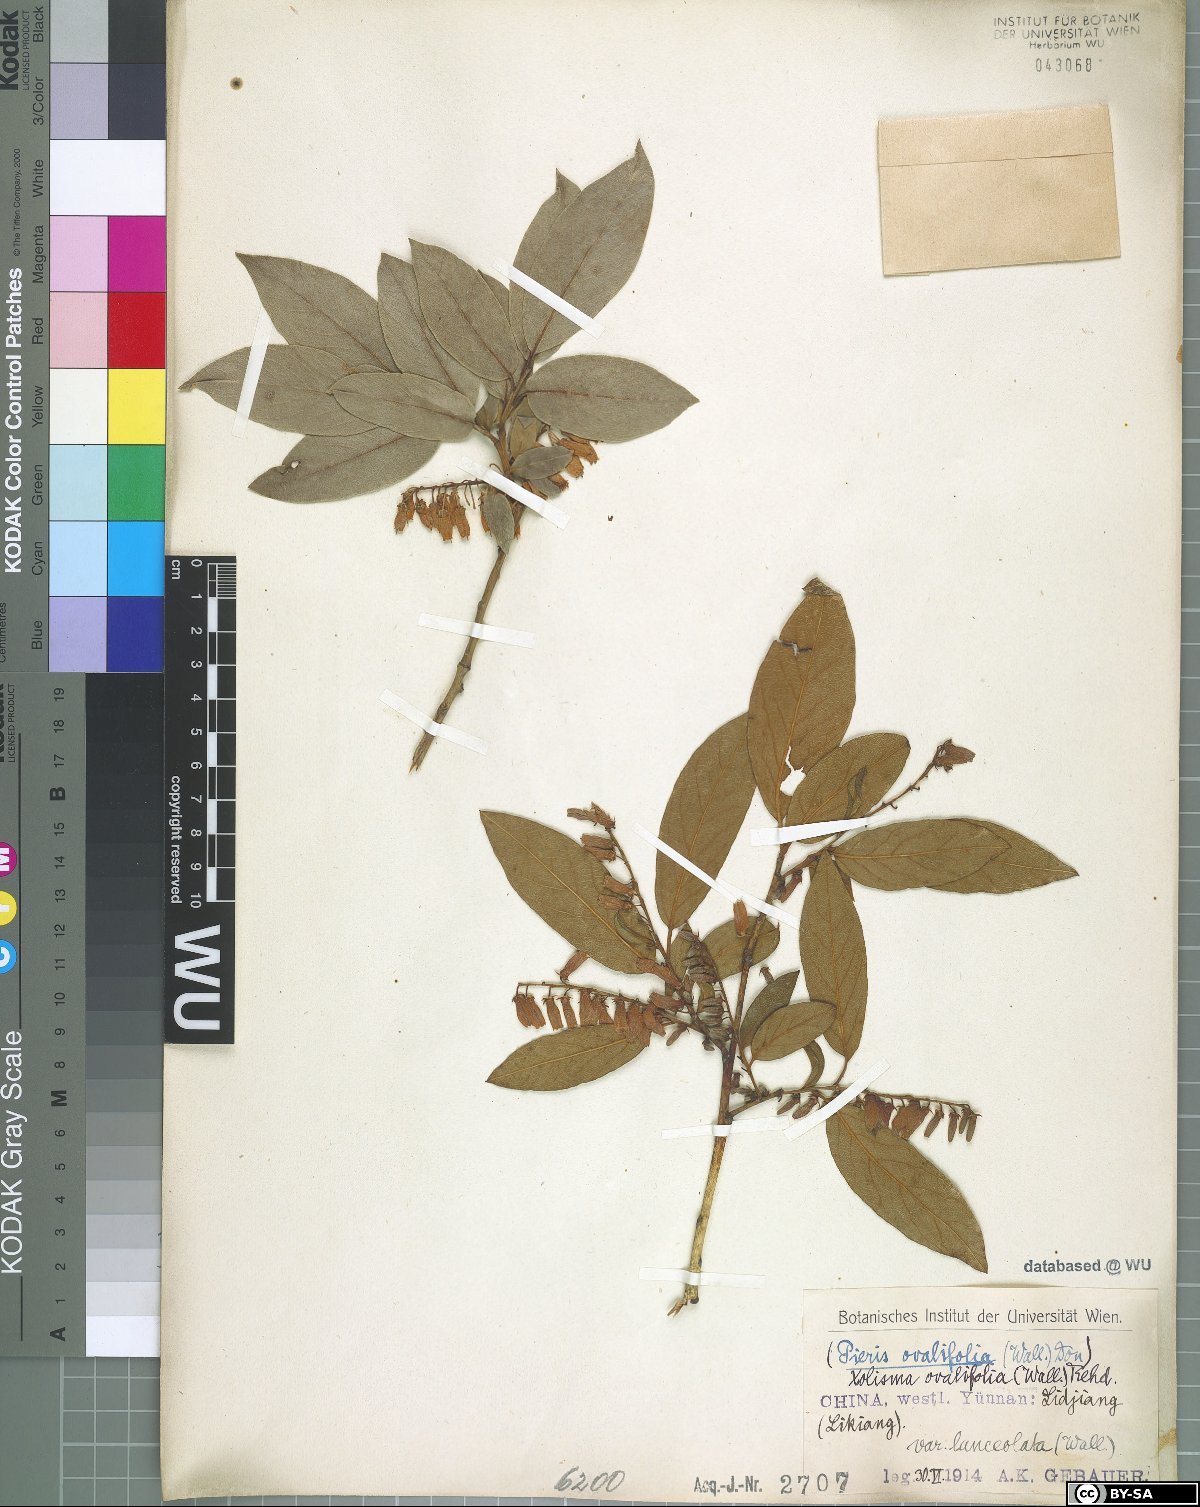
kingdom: Plantae
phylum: Tracheophyta
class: Magnoliopsida
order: Ericales
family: Ericaceae
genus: Lyonia
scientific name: Lyonia ovalifolia
